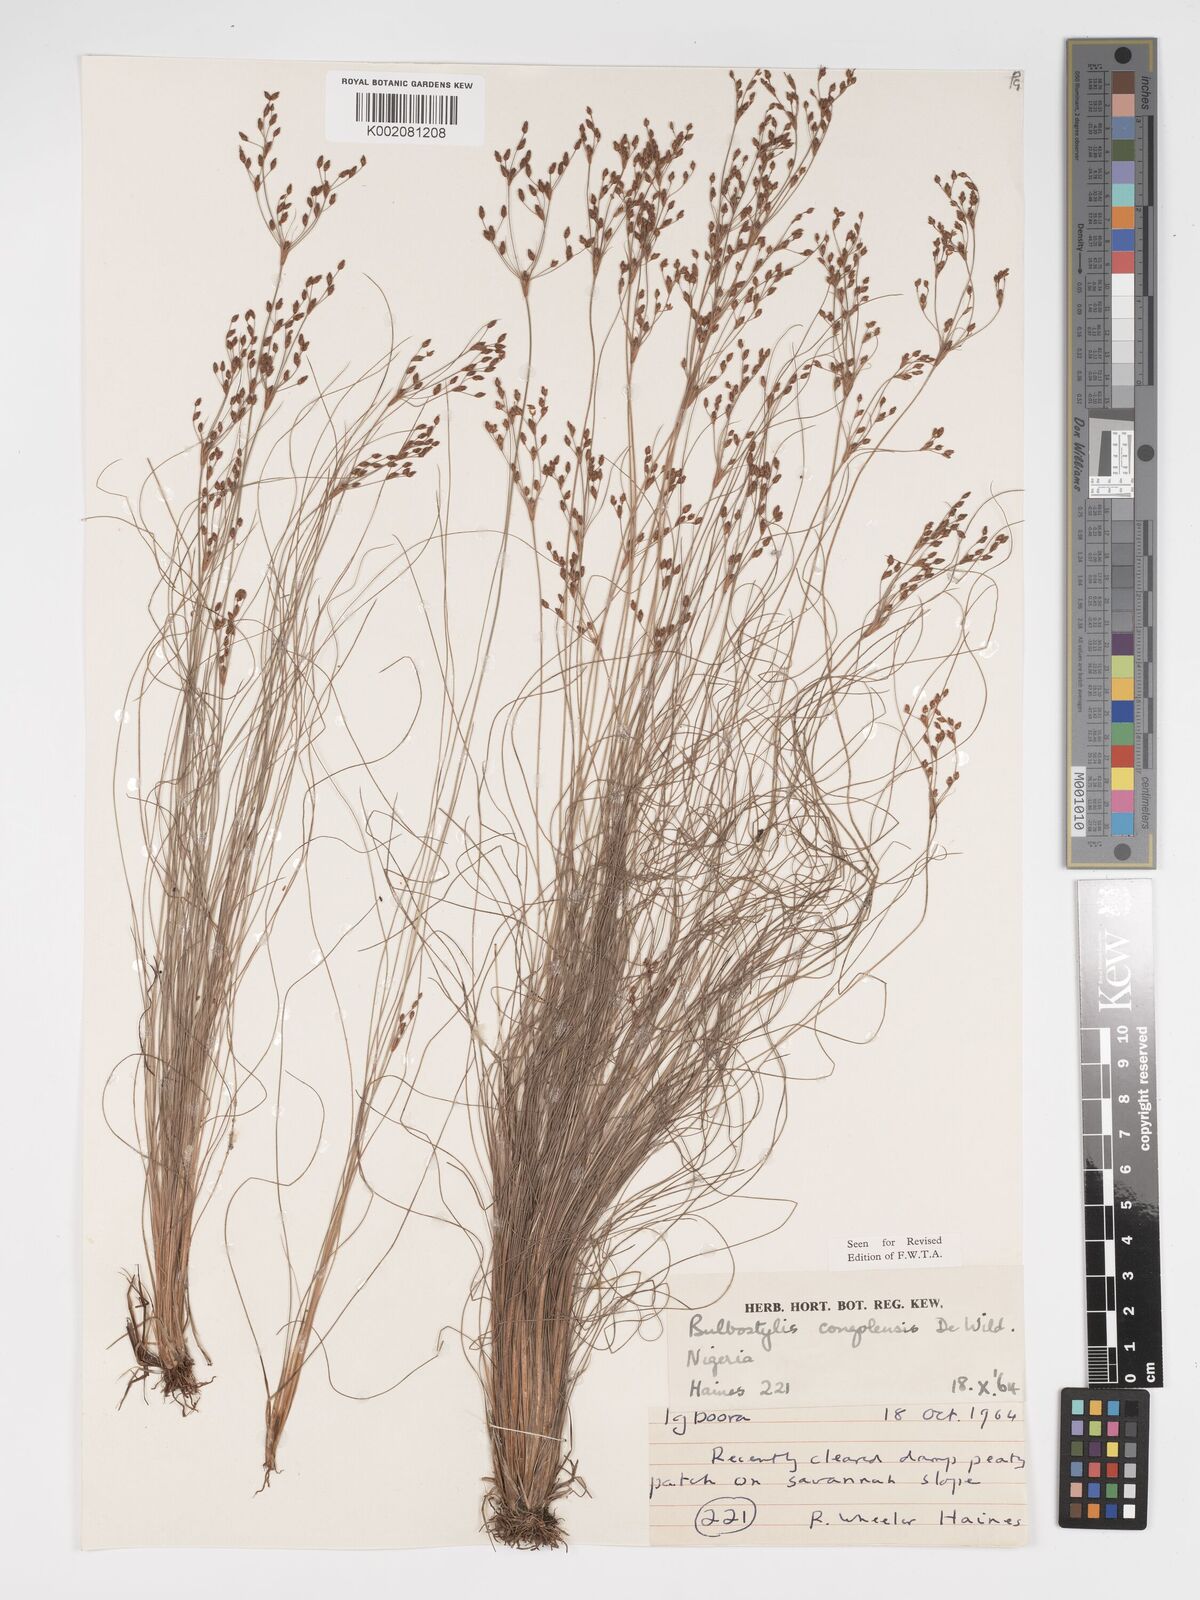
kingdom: Plantae
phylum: Tracheophyta
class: Liliopsida
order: Poales
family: Cyperaceae
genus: Bulbostylis
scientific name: Bulbostylis congolensis
